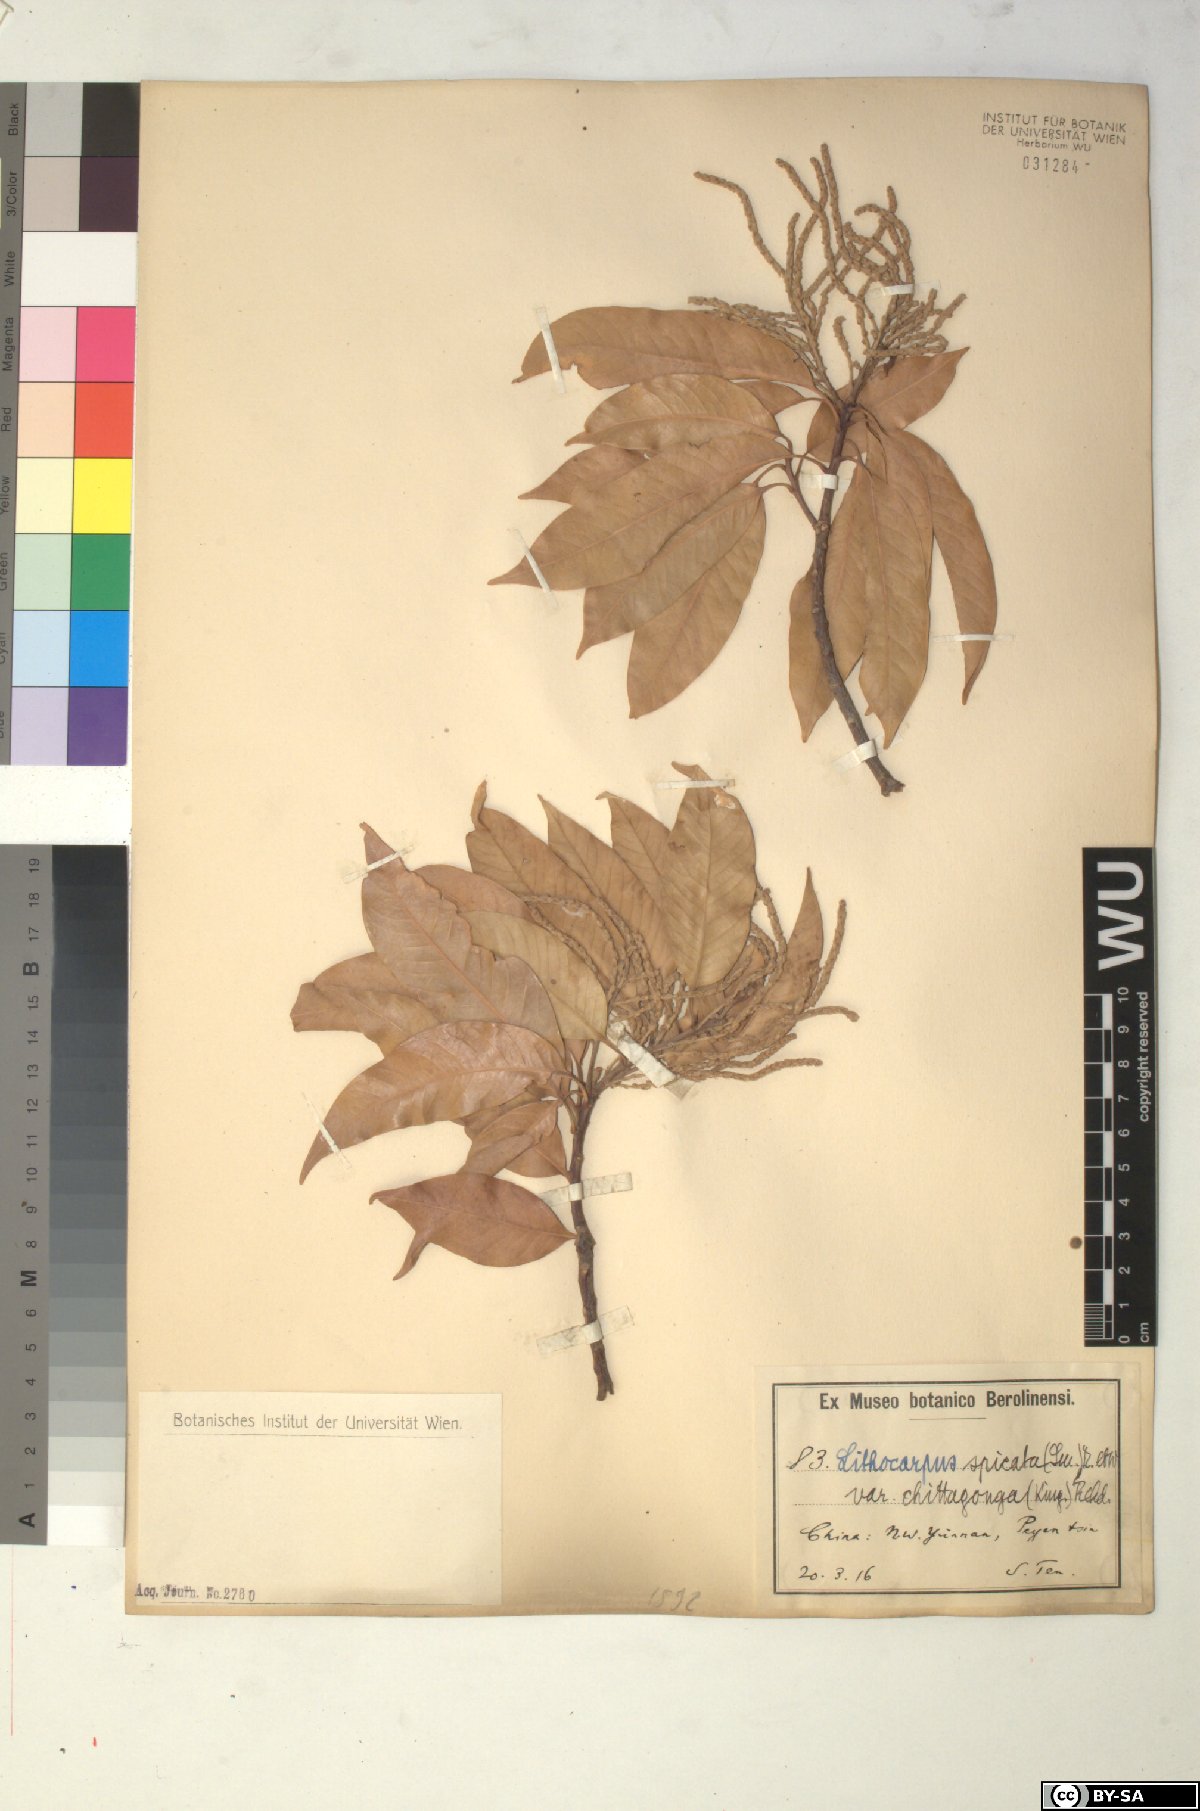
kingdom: Plantae
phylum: Tracheophyta
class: Magnoliopsida
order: Fagales
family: Fagaceae
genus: Lithocarpus
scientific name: Lithocarpus elegans
